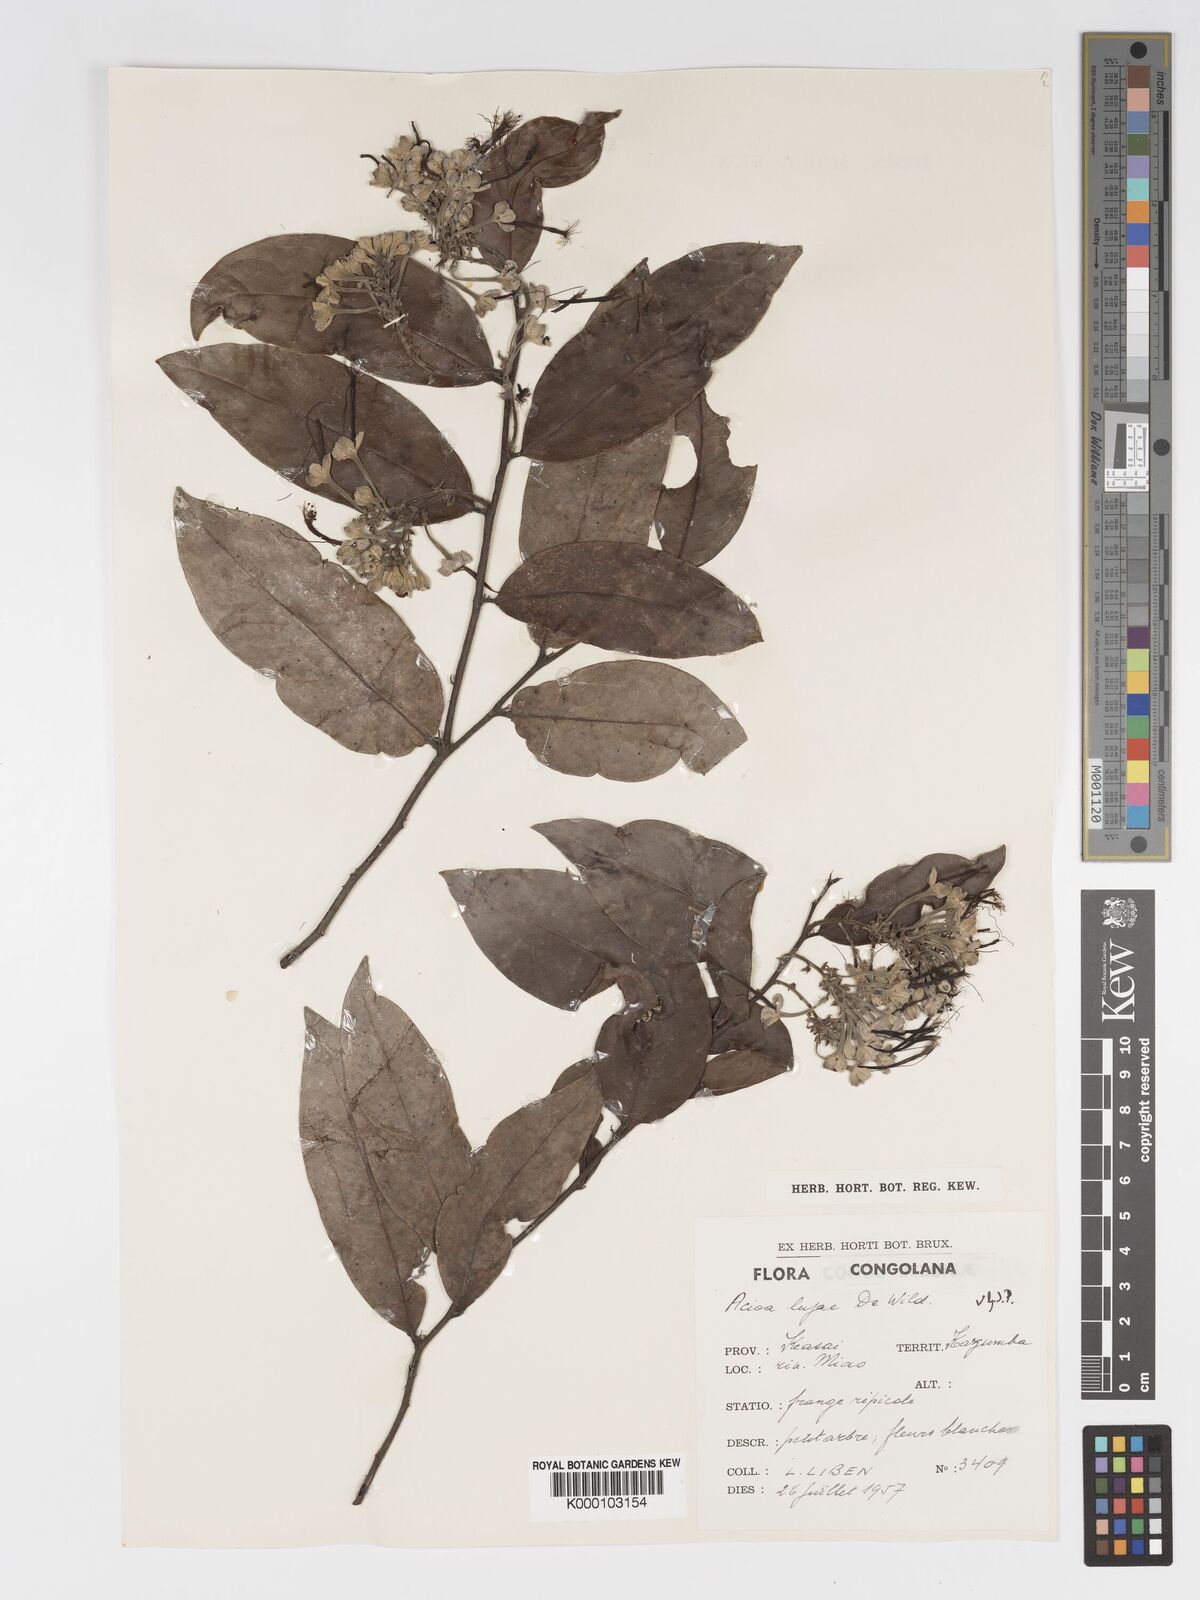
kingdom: Plantae
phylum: Tracheophyta
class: Magnoliopsida
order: Malpighiales
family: Chrysobalanaceae
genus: Dactyladenia
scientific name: Dactyladenia buchneri
